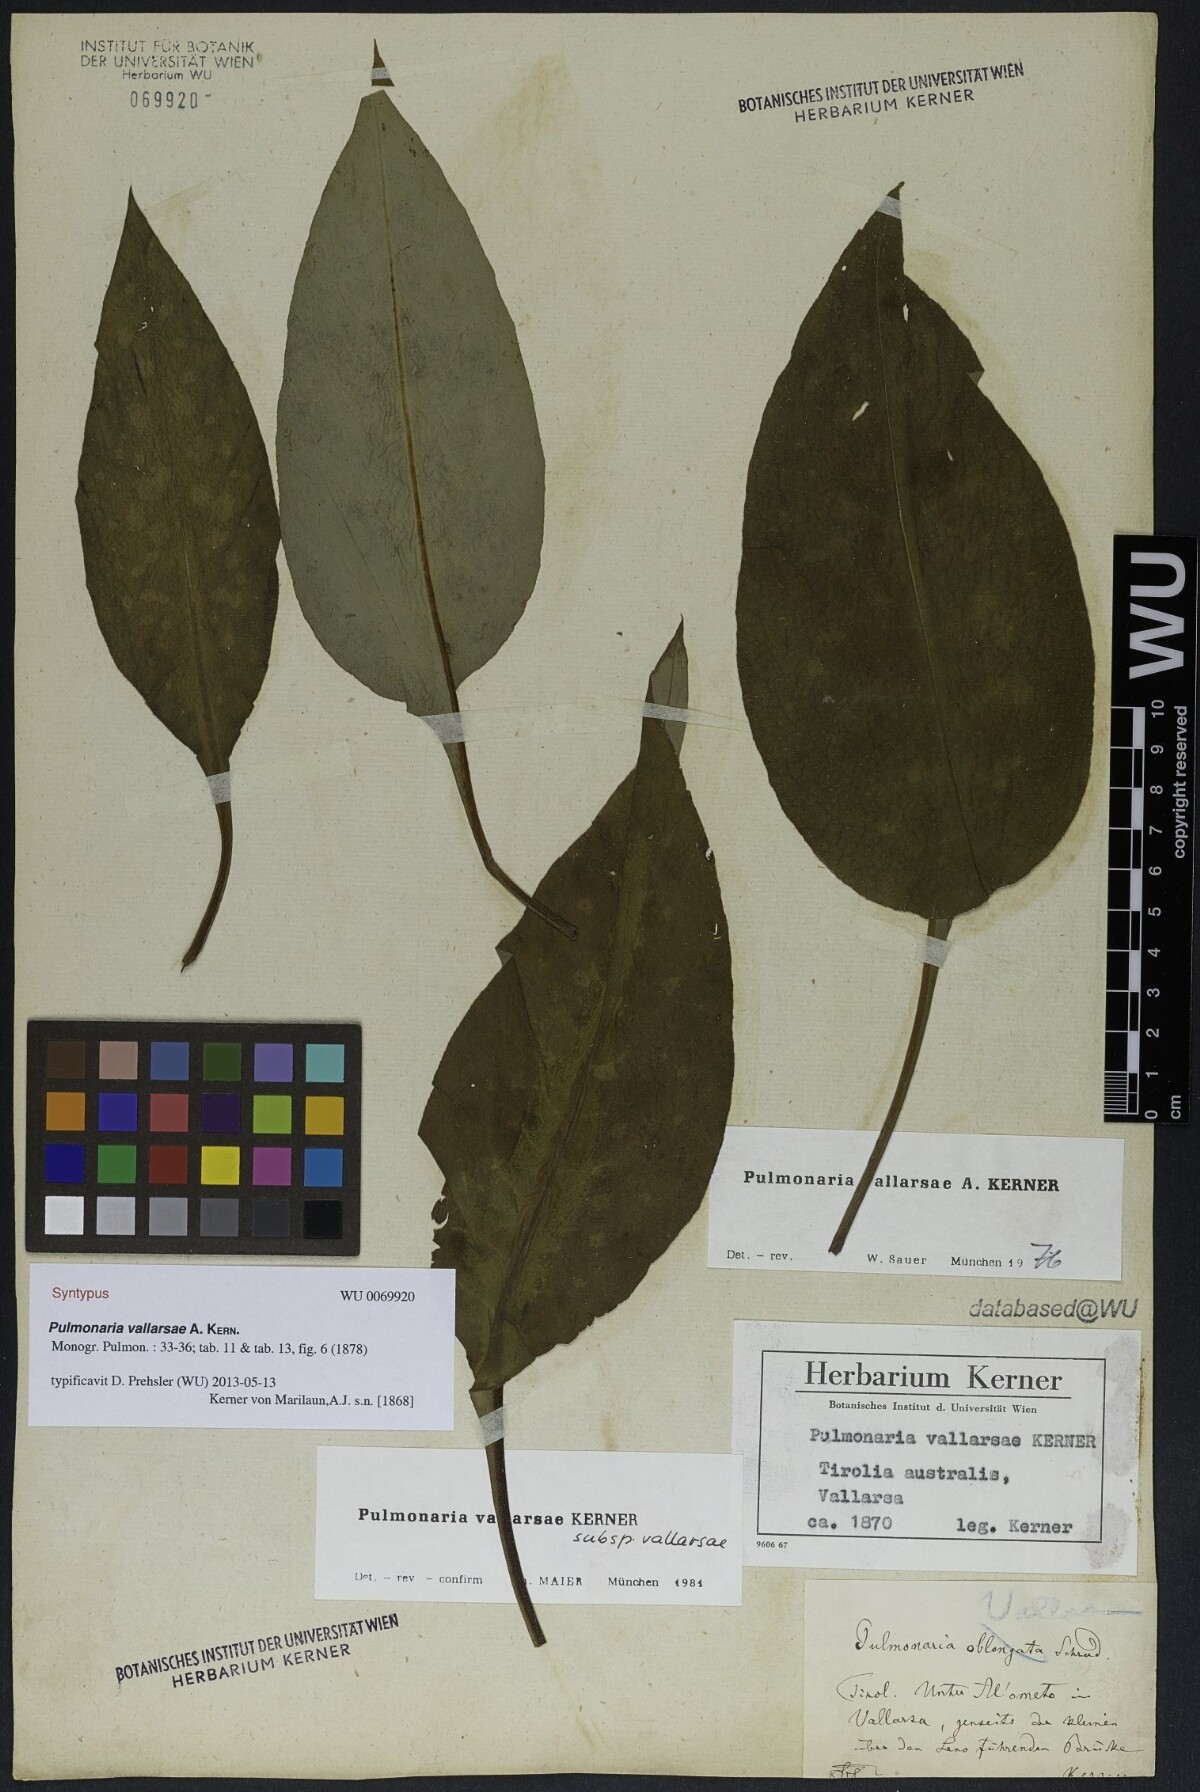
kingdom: Plantae
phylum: Tracheophyta
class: Magnoliopsida
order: Boraginales
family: Boraginaceae
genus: Pulmonaria
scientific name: Pulmonaria hirta
